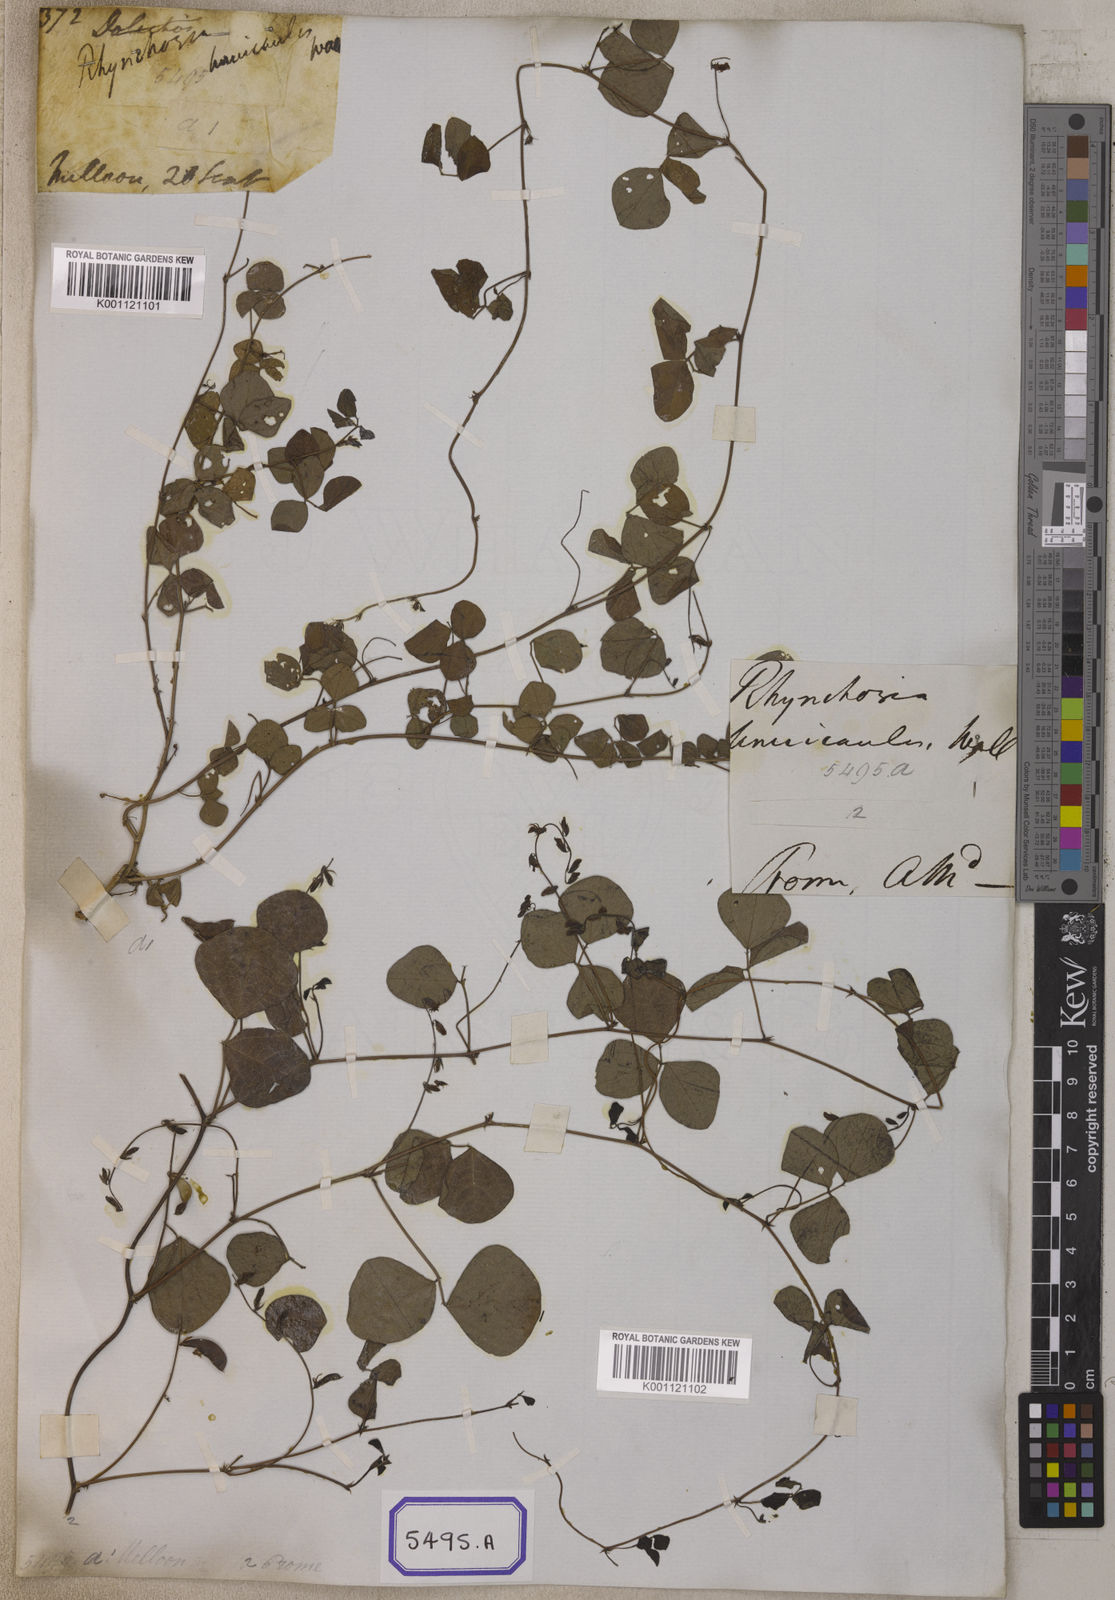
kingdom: Plantae
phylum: Tracheophyta
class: Magnoliopsida
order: Fabales
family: Fabaceae
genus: Rhynchosia
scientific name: Rhynchosia minima
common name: Least snoutbean
